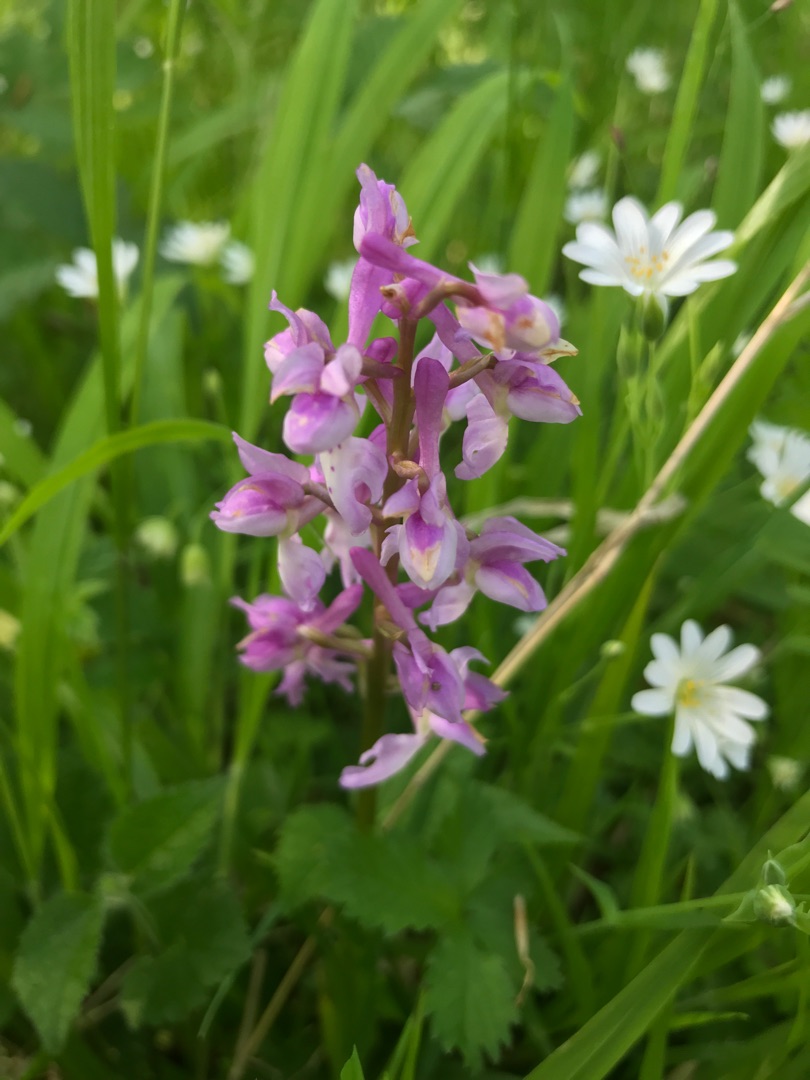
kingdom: Plantae
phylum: Tracheophyta
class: Liliopsida
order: Asparagales
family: Orchidaceae
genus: Orchis
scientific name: Orchis mascula
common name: Tyndakset gøgeurt
